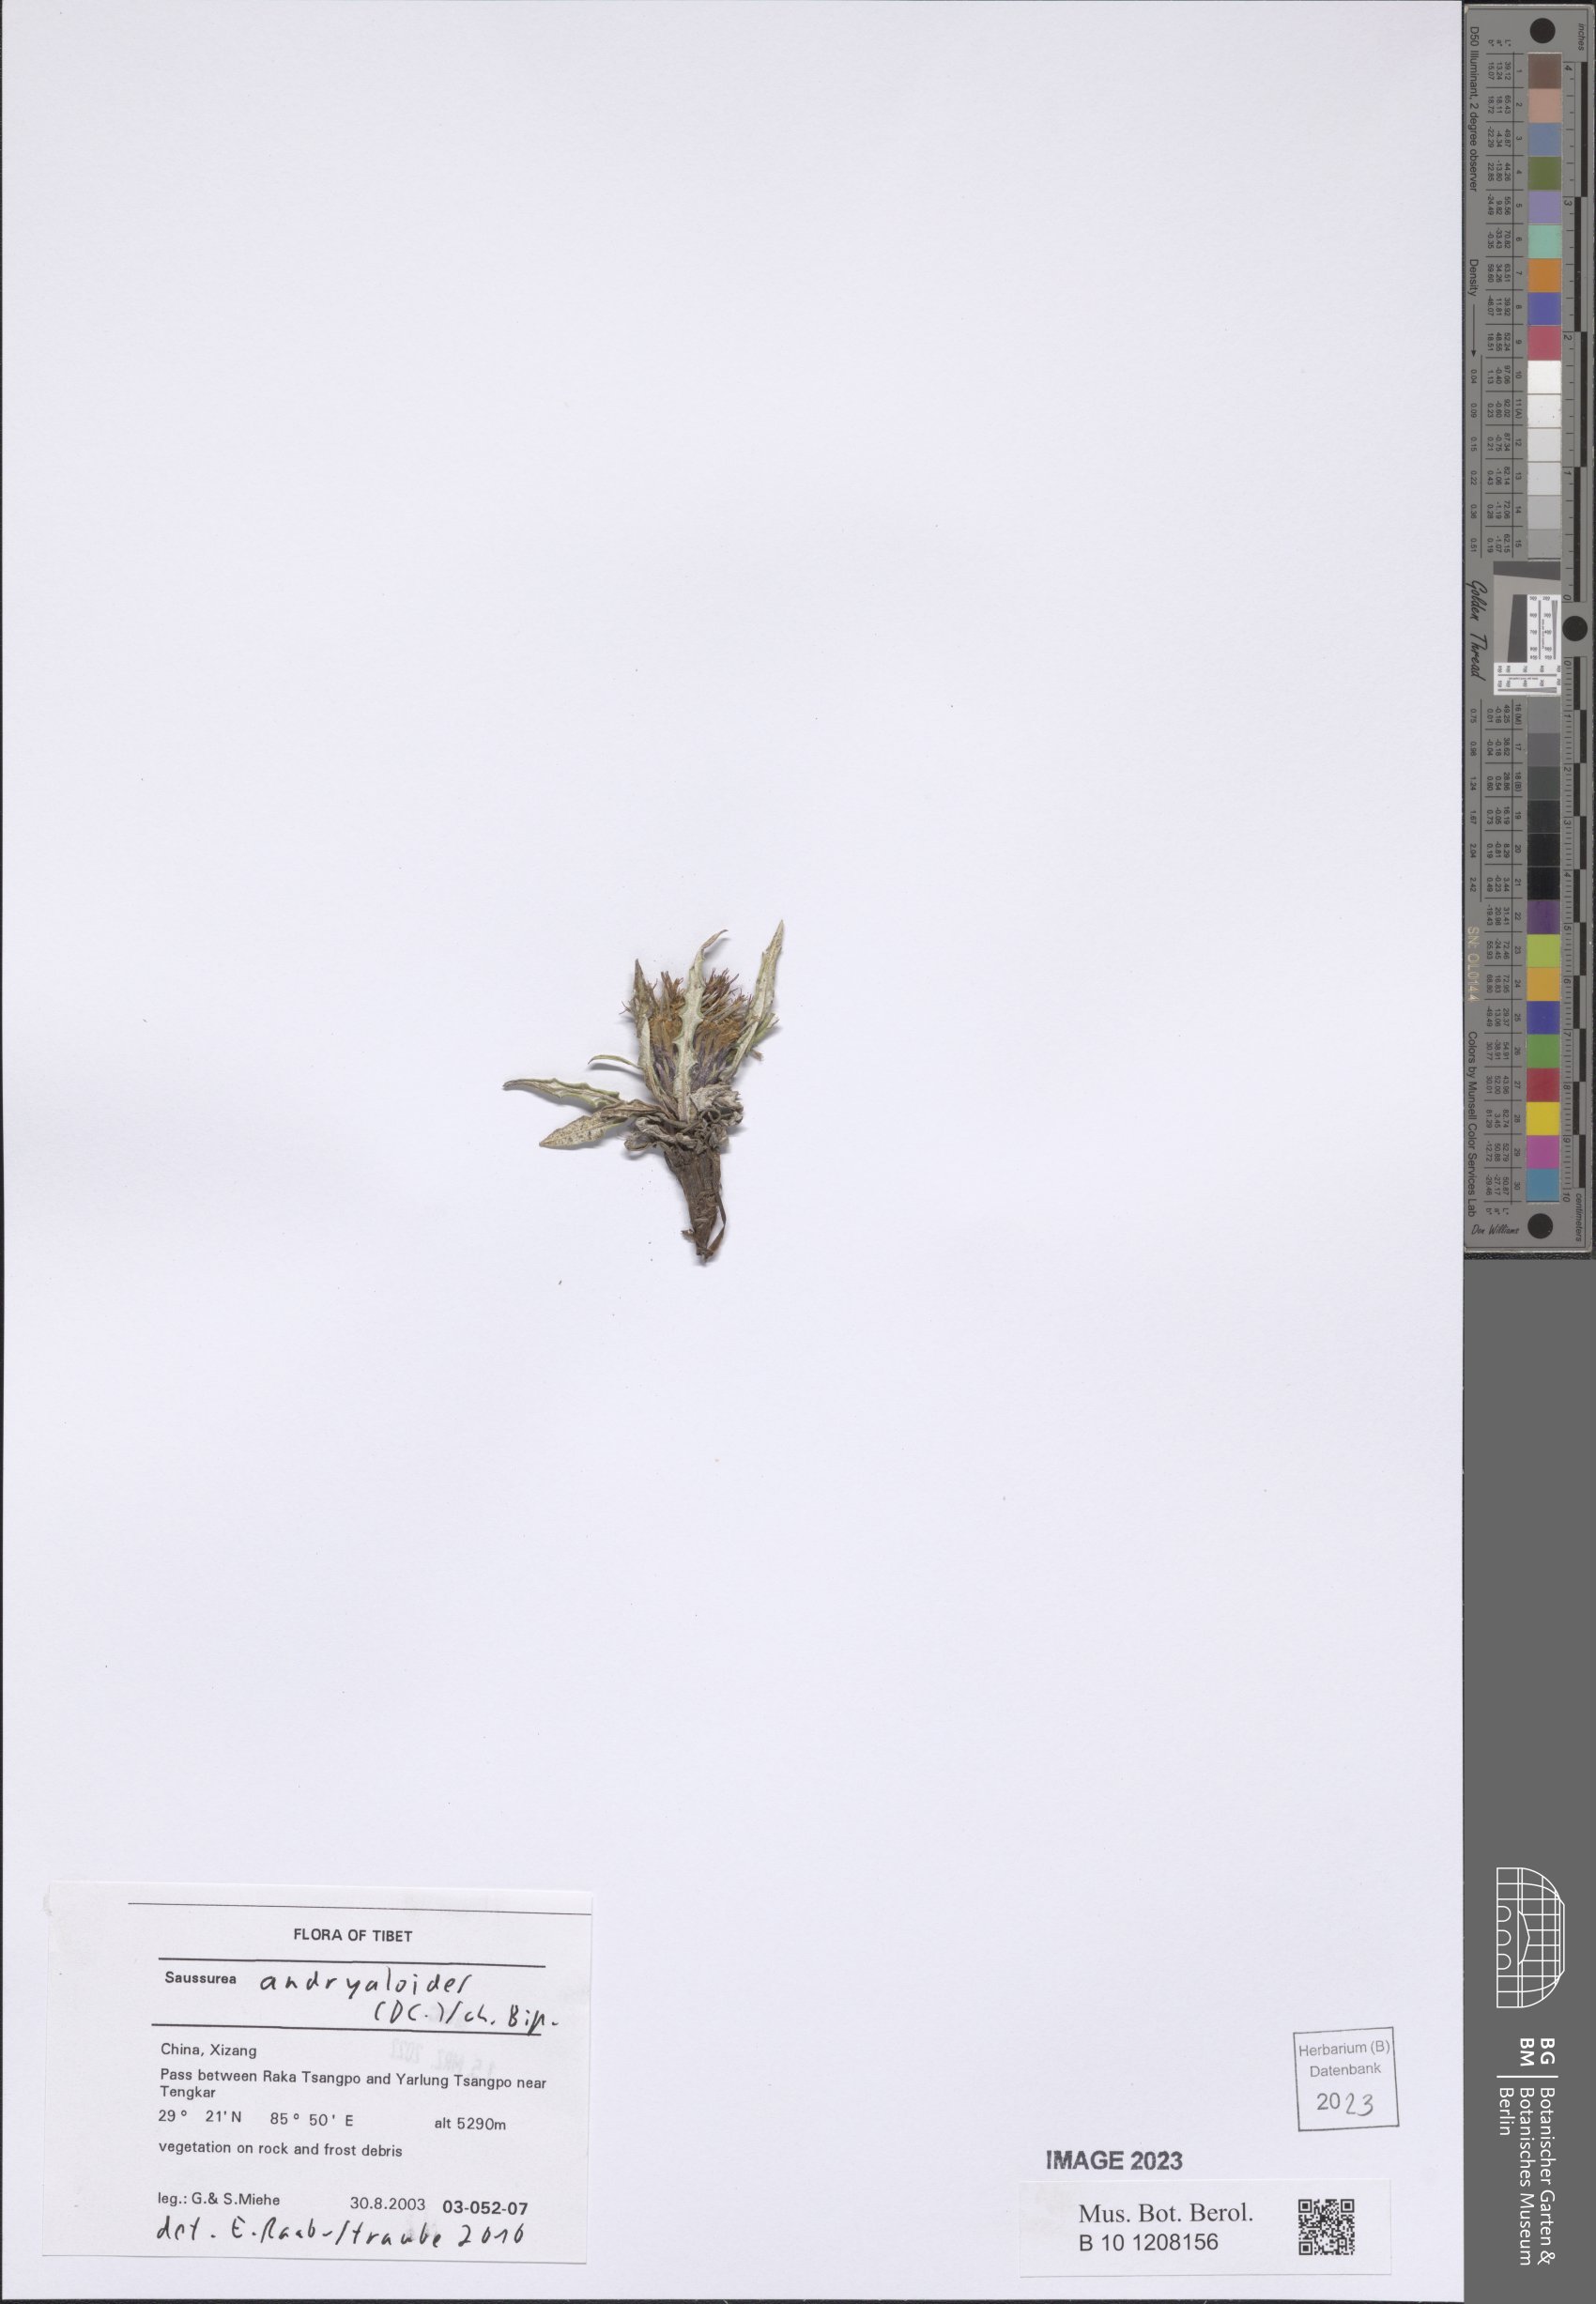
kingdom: Plantae
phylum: Tracheophyta
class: Magnoliopsida
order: Asterales
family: Asteraceae
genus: Saussurea
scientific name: Saussurea andryaloides
